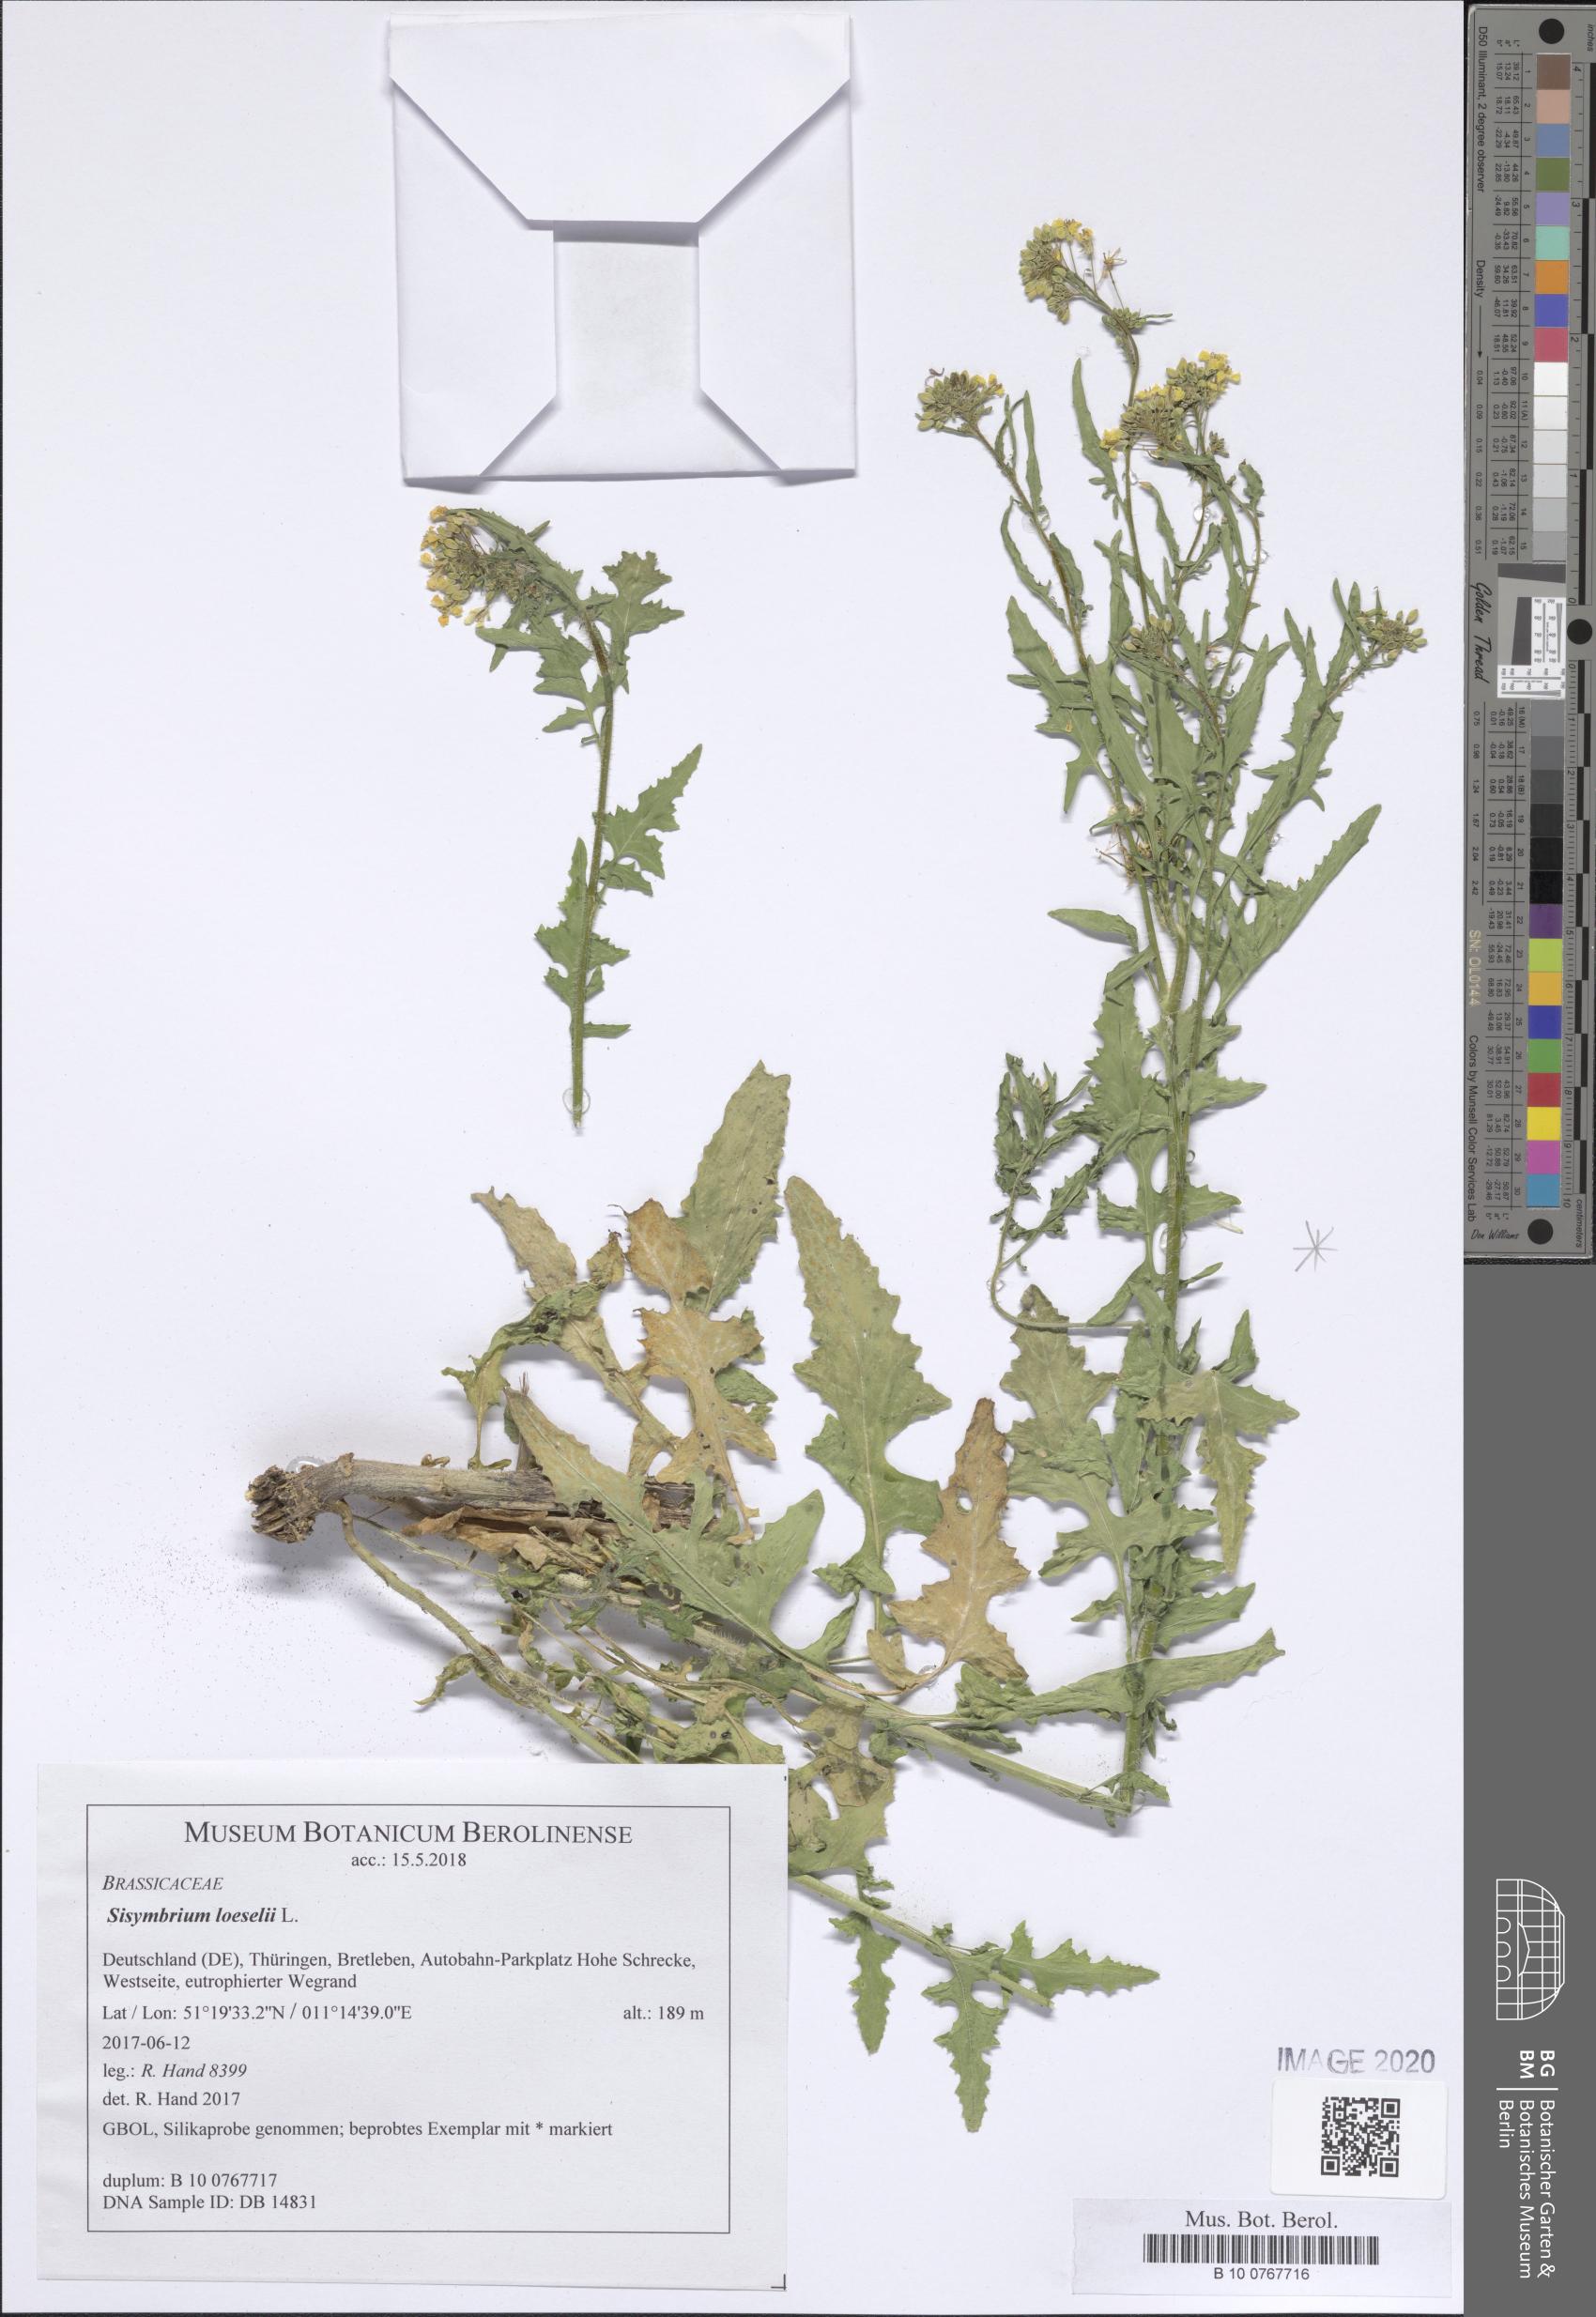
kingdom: Plantae
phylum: Tracheophyta
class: Magnoliopsida
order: Brassicales
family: Brassicaceae
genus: Sisymbrium
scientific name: Sisymbrium loeselii
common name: False london-rocket
